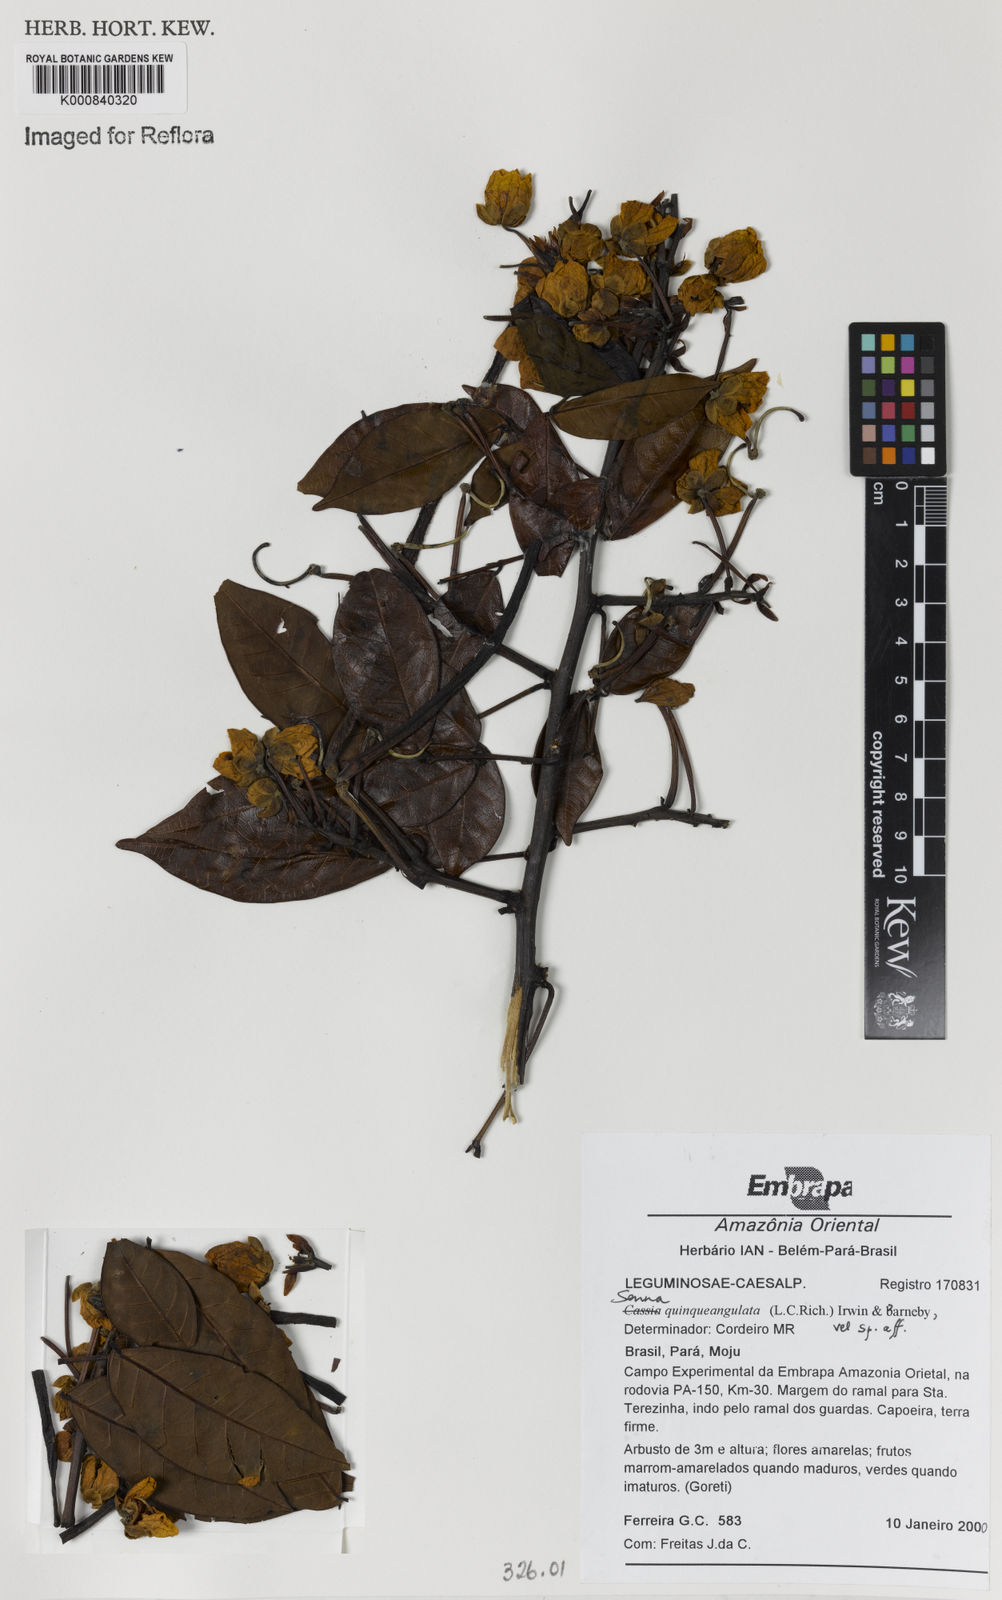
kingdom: Plantae
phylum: Tracheophyta
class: Magnoliopsida
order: Fabales
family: Fabaceae
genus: Senna
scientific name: Senna undulata
